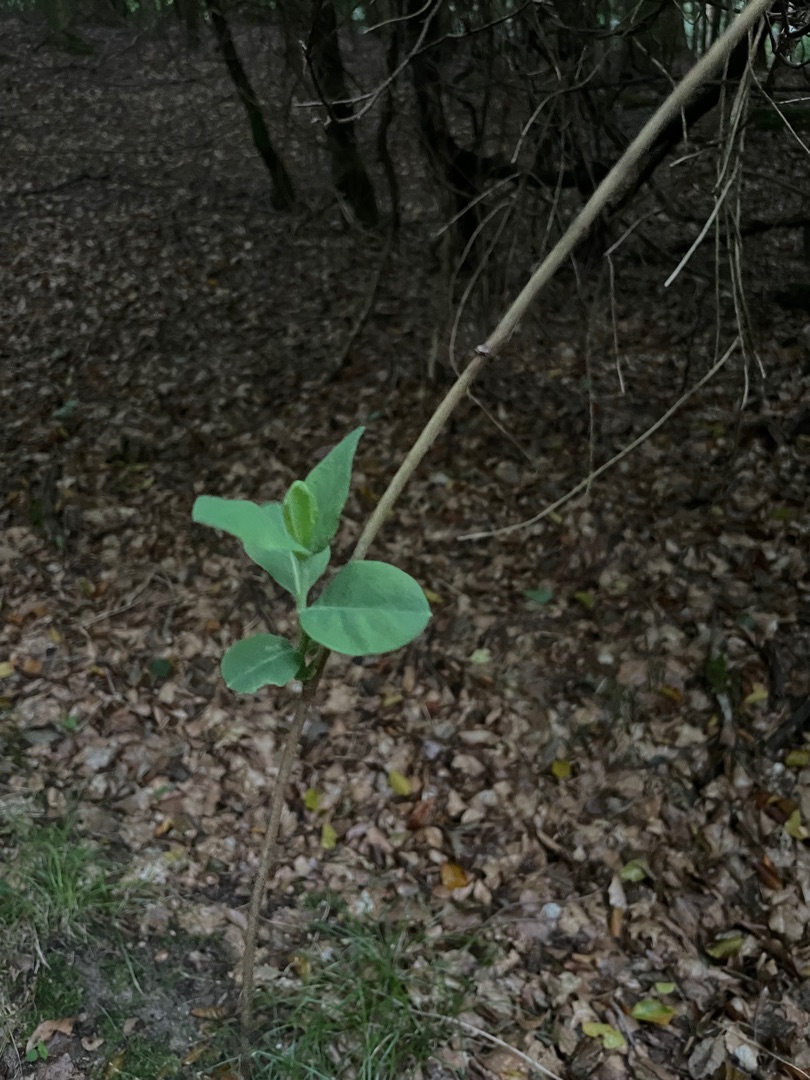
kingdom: Plantae
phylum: Tracheophyta
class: Magnoliopsida
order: Dipsacales
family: Caprifoliaceae
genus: Lonicera
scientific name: Lonicera periclymenum
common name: Almindelig gedeblad
